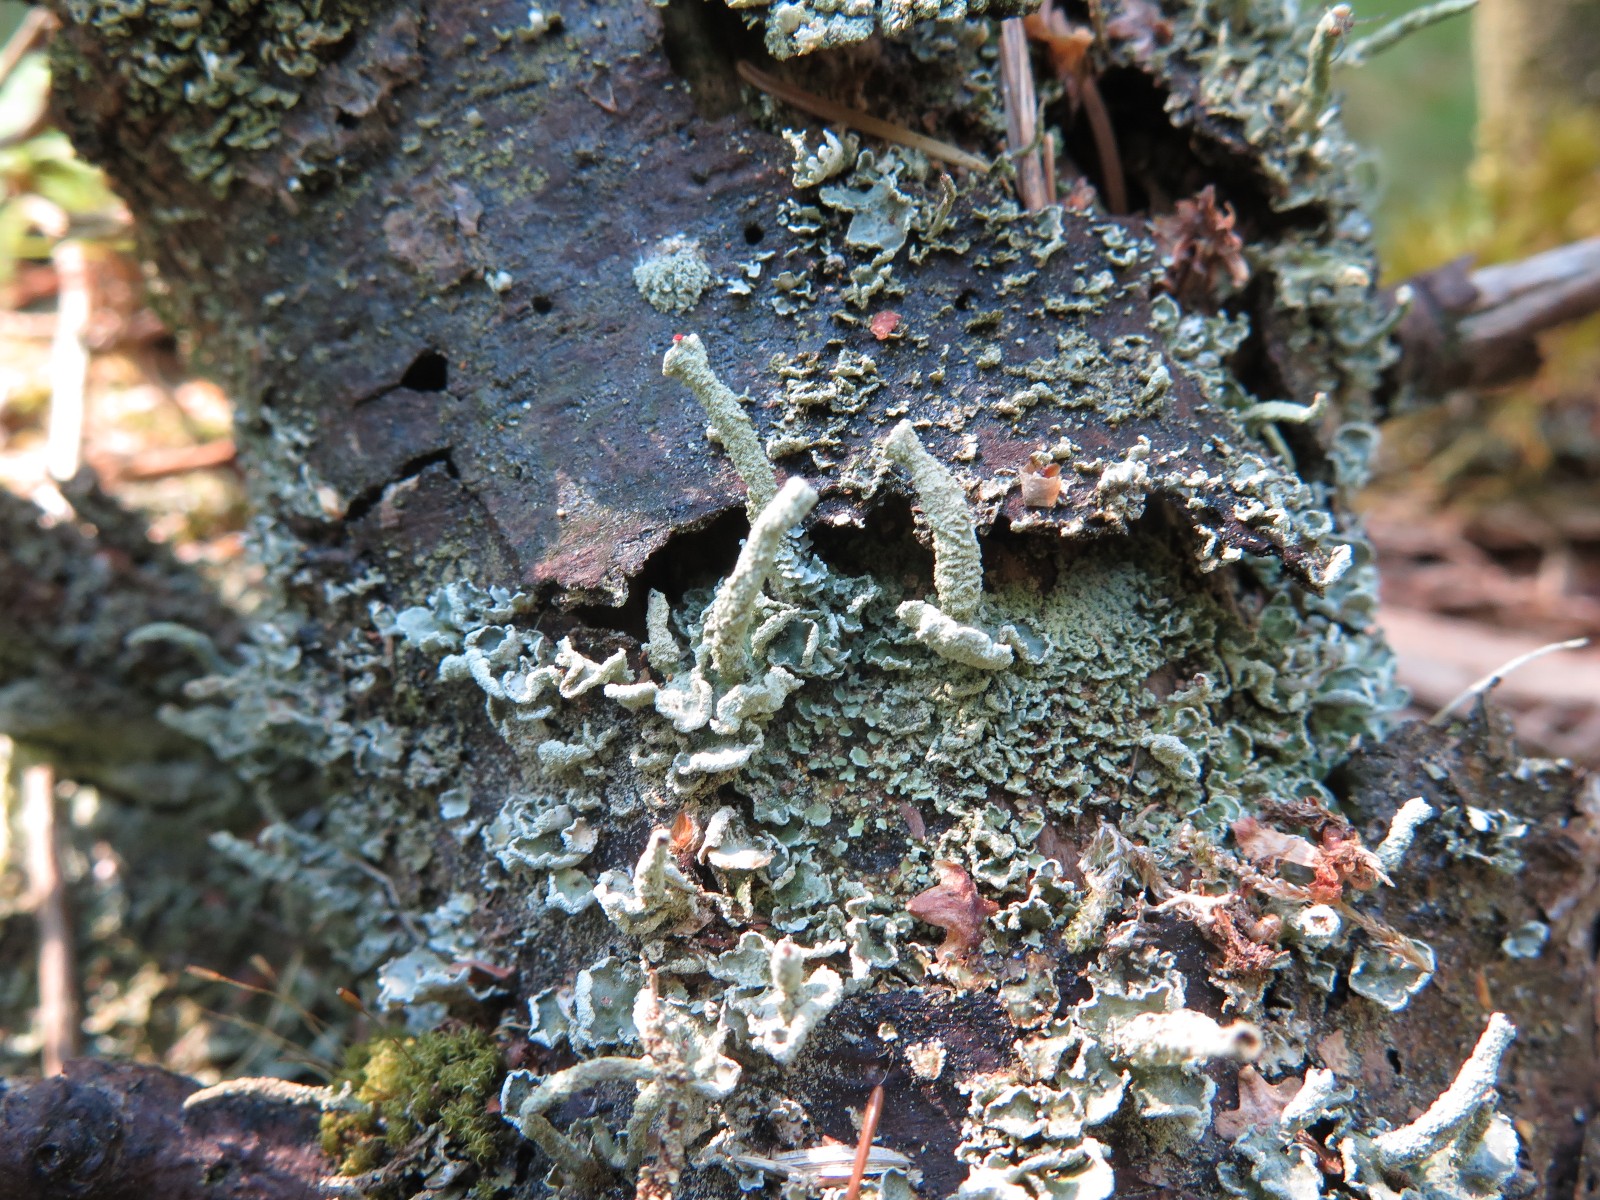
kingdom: Fungi
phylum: Ascomycota
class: Lecanoromycetes
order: Lecanorales
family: Cladoniaceae
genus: Cladonia
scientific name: Cladonia digitata
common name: finger-bægerlav
